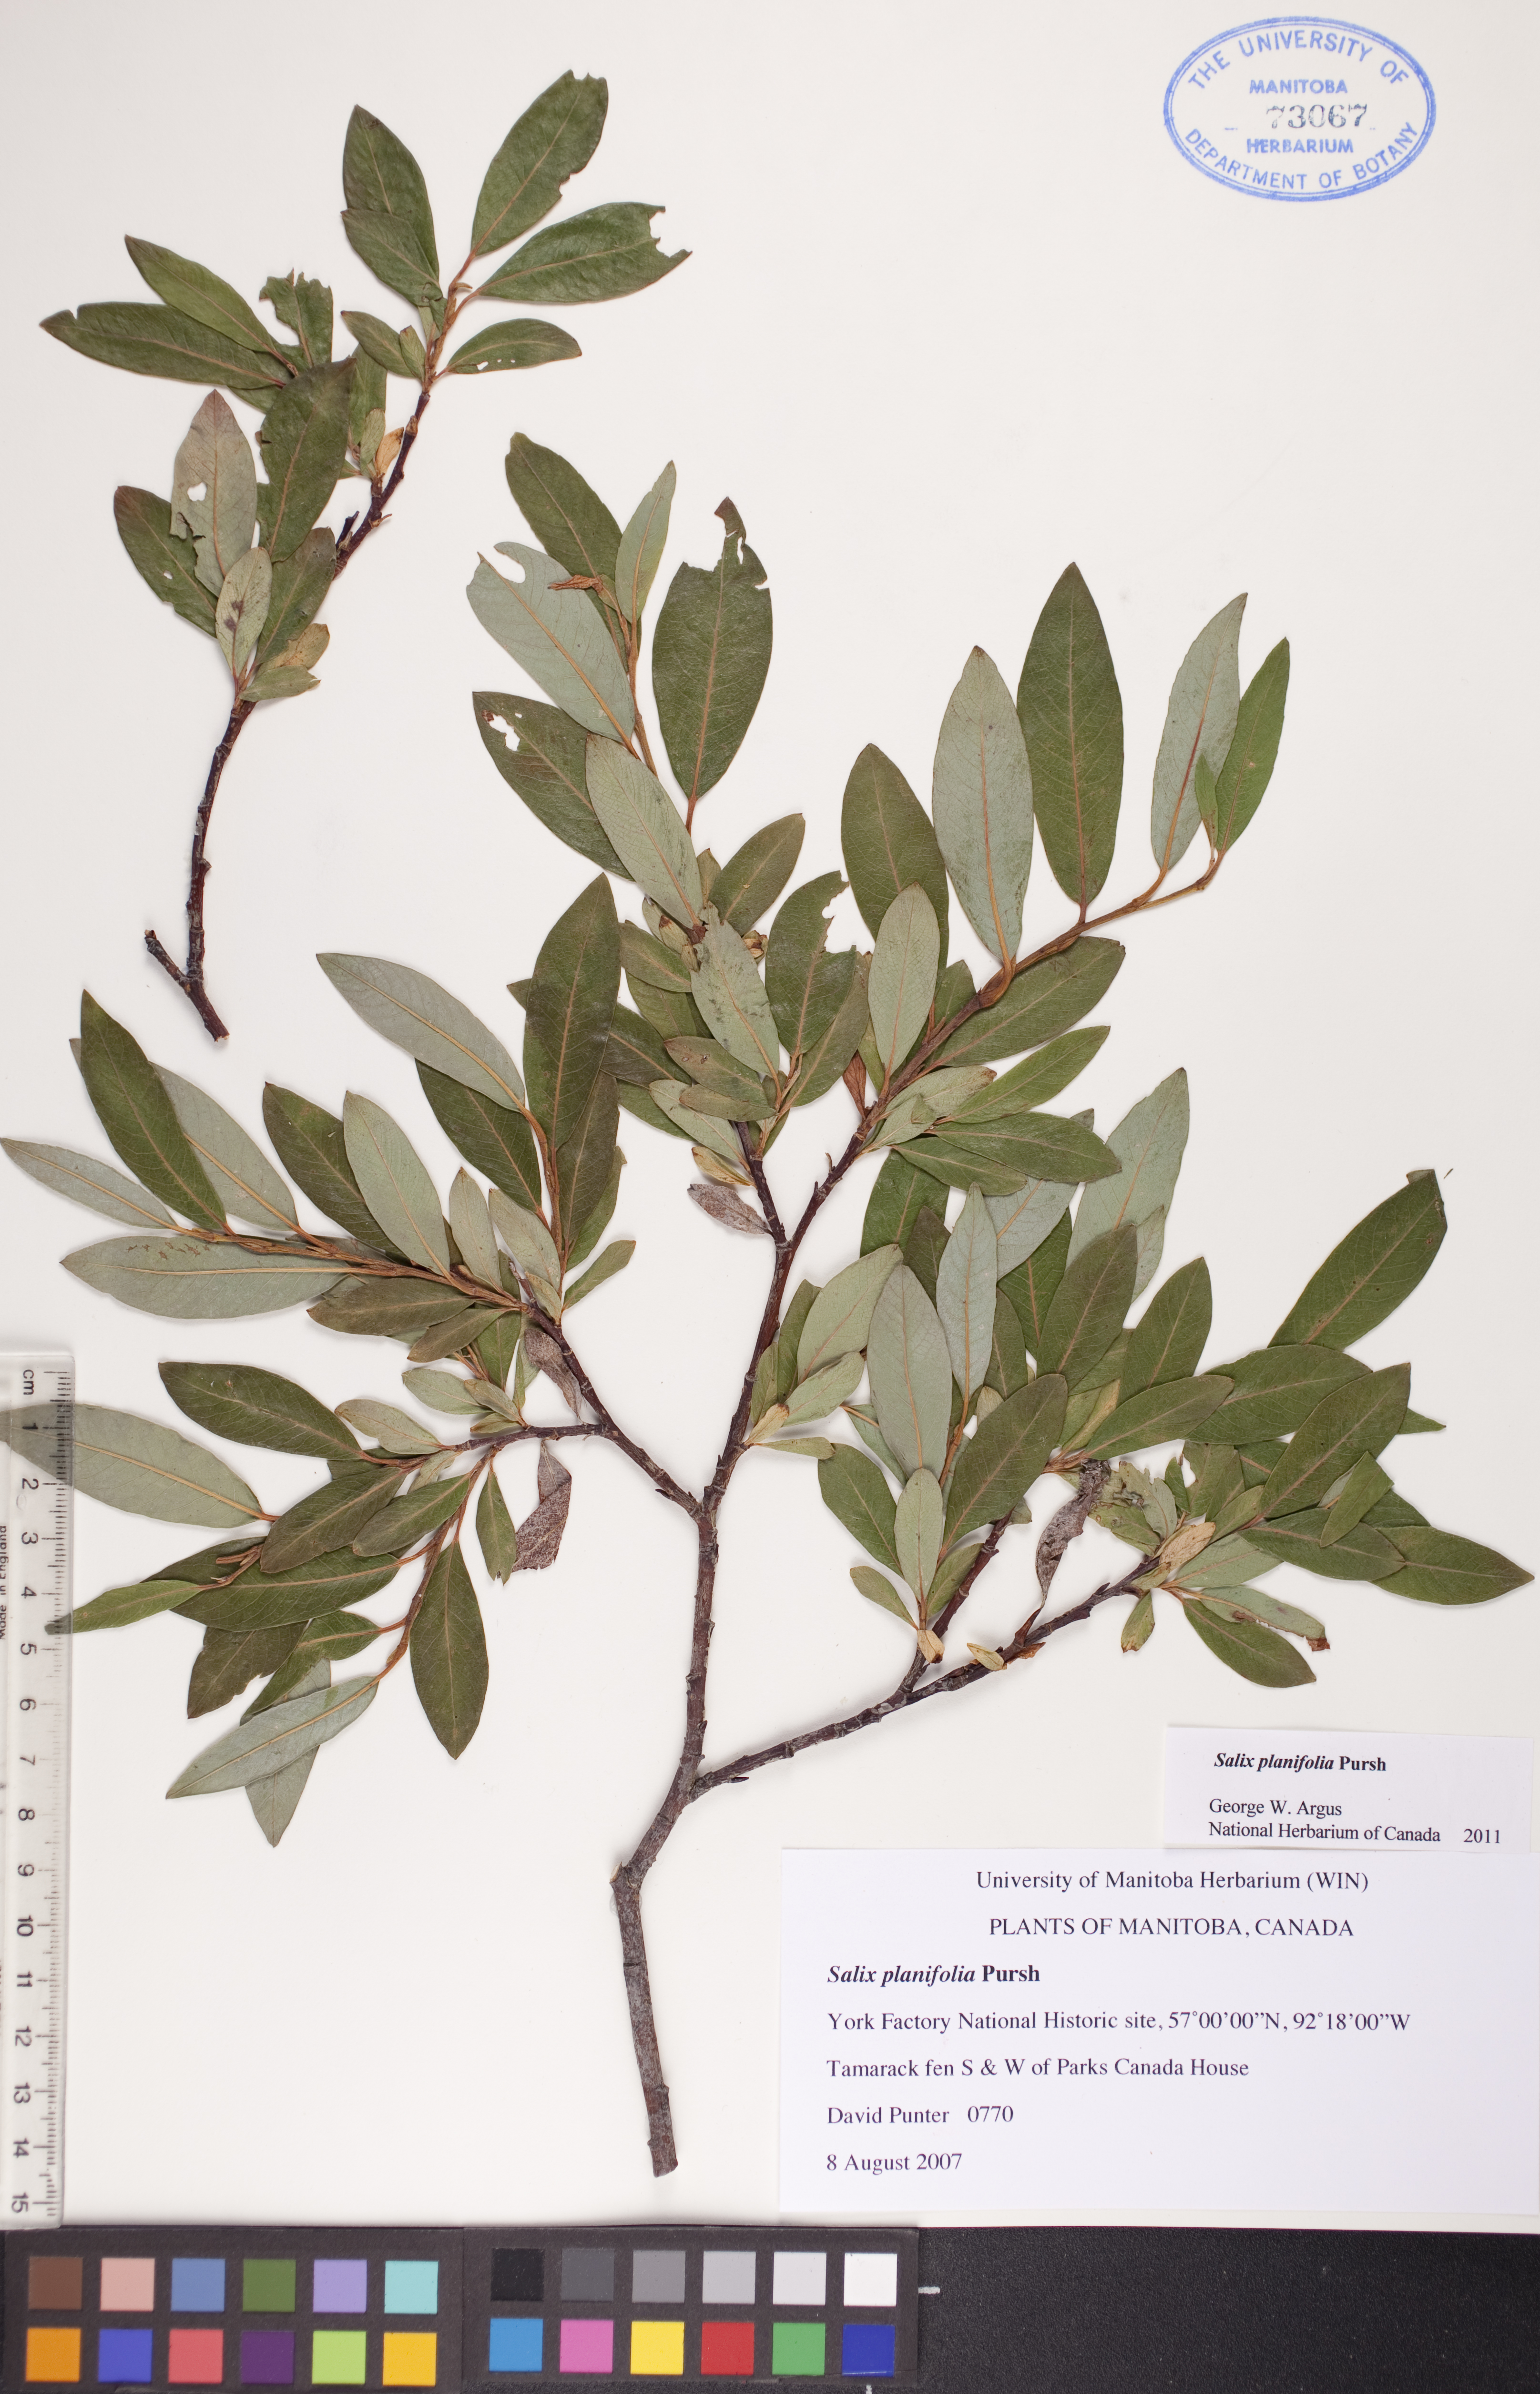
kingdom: Plantae
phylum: Tracheophyta
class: Magnoliopsida
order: Malpighiales
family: Salicaceae
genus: Salix
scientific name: Salix planifolia
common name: Mountain willow
